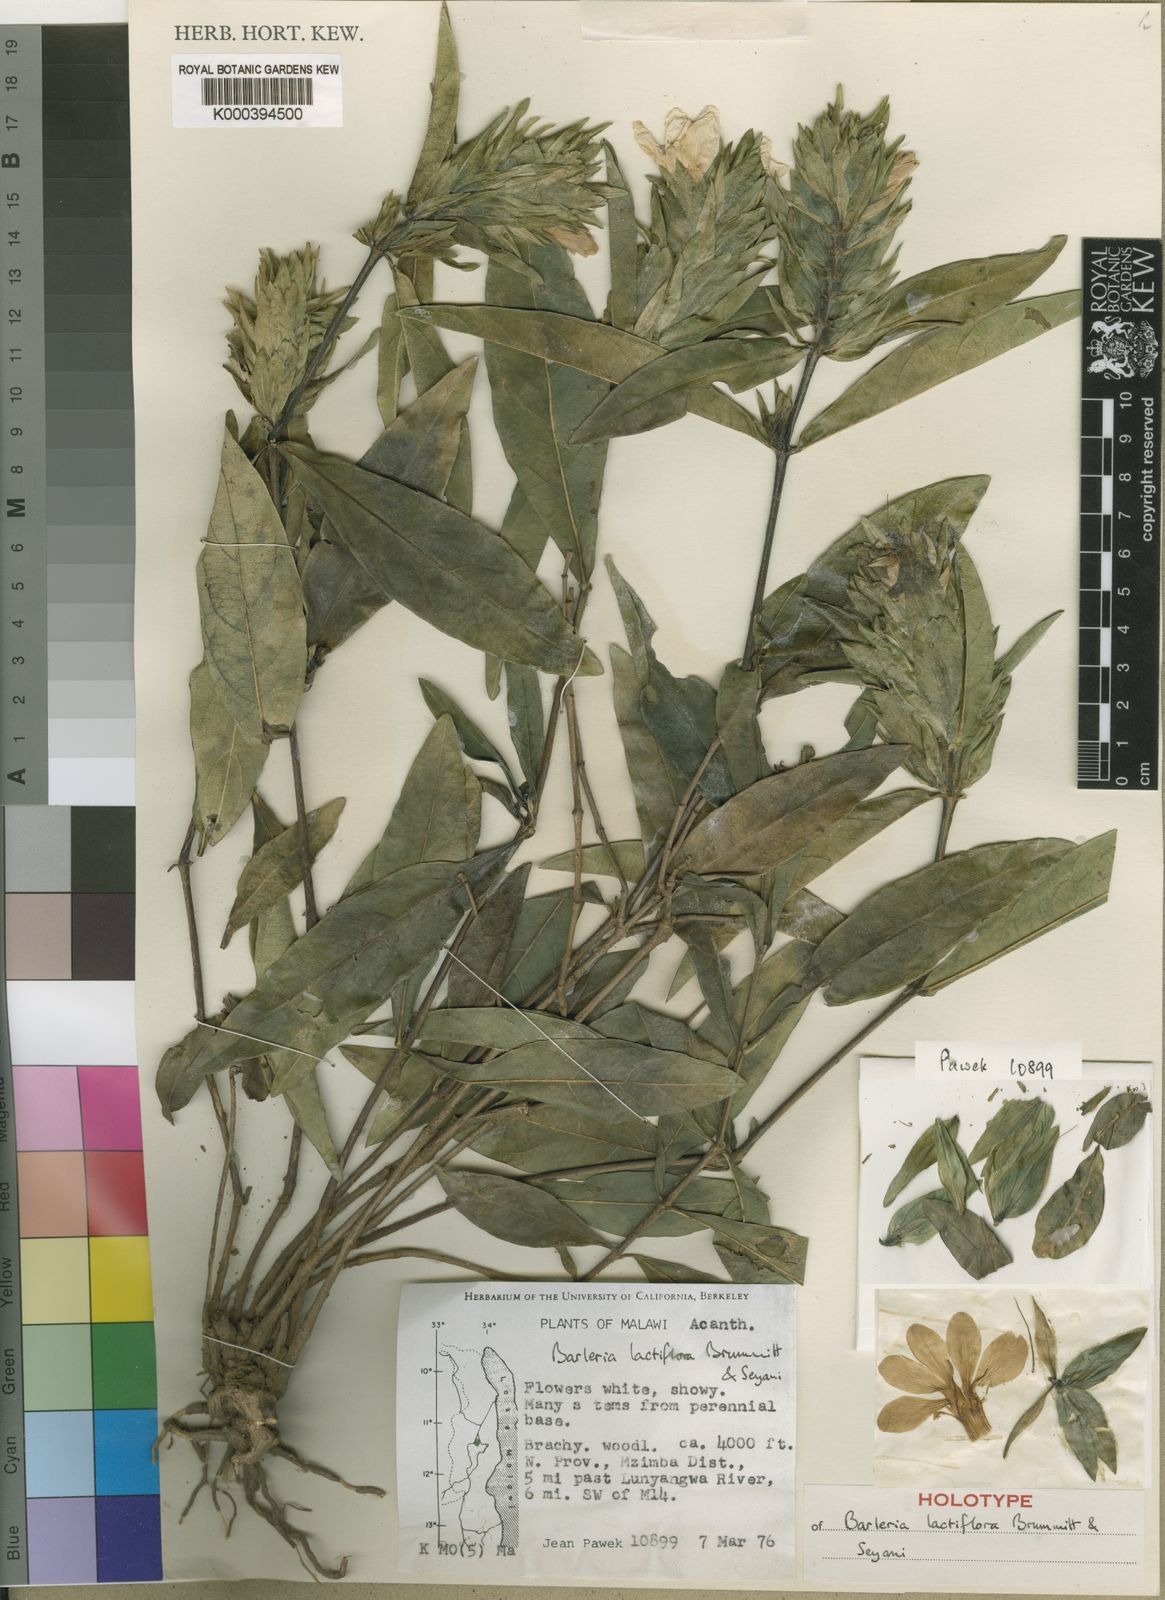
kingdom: Plantae
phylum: Tracheophyta
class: Magnoliopsida
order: Lamiales
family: Acanthaceae
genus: Barleria
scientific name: Barleria lactiflora
